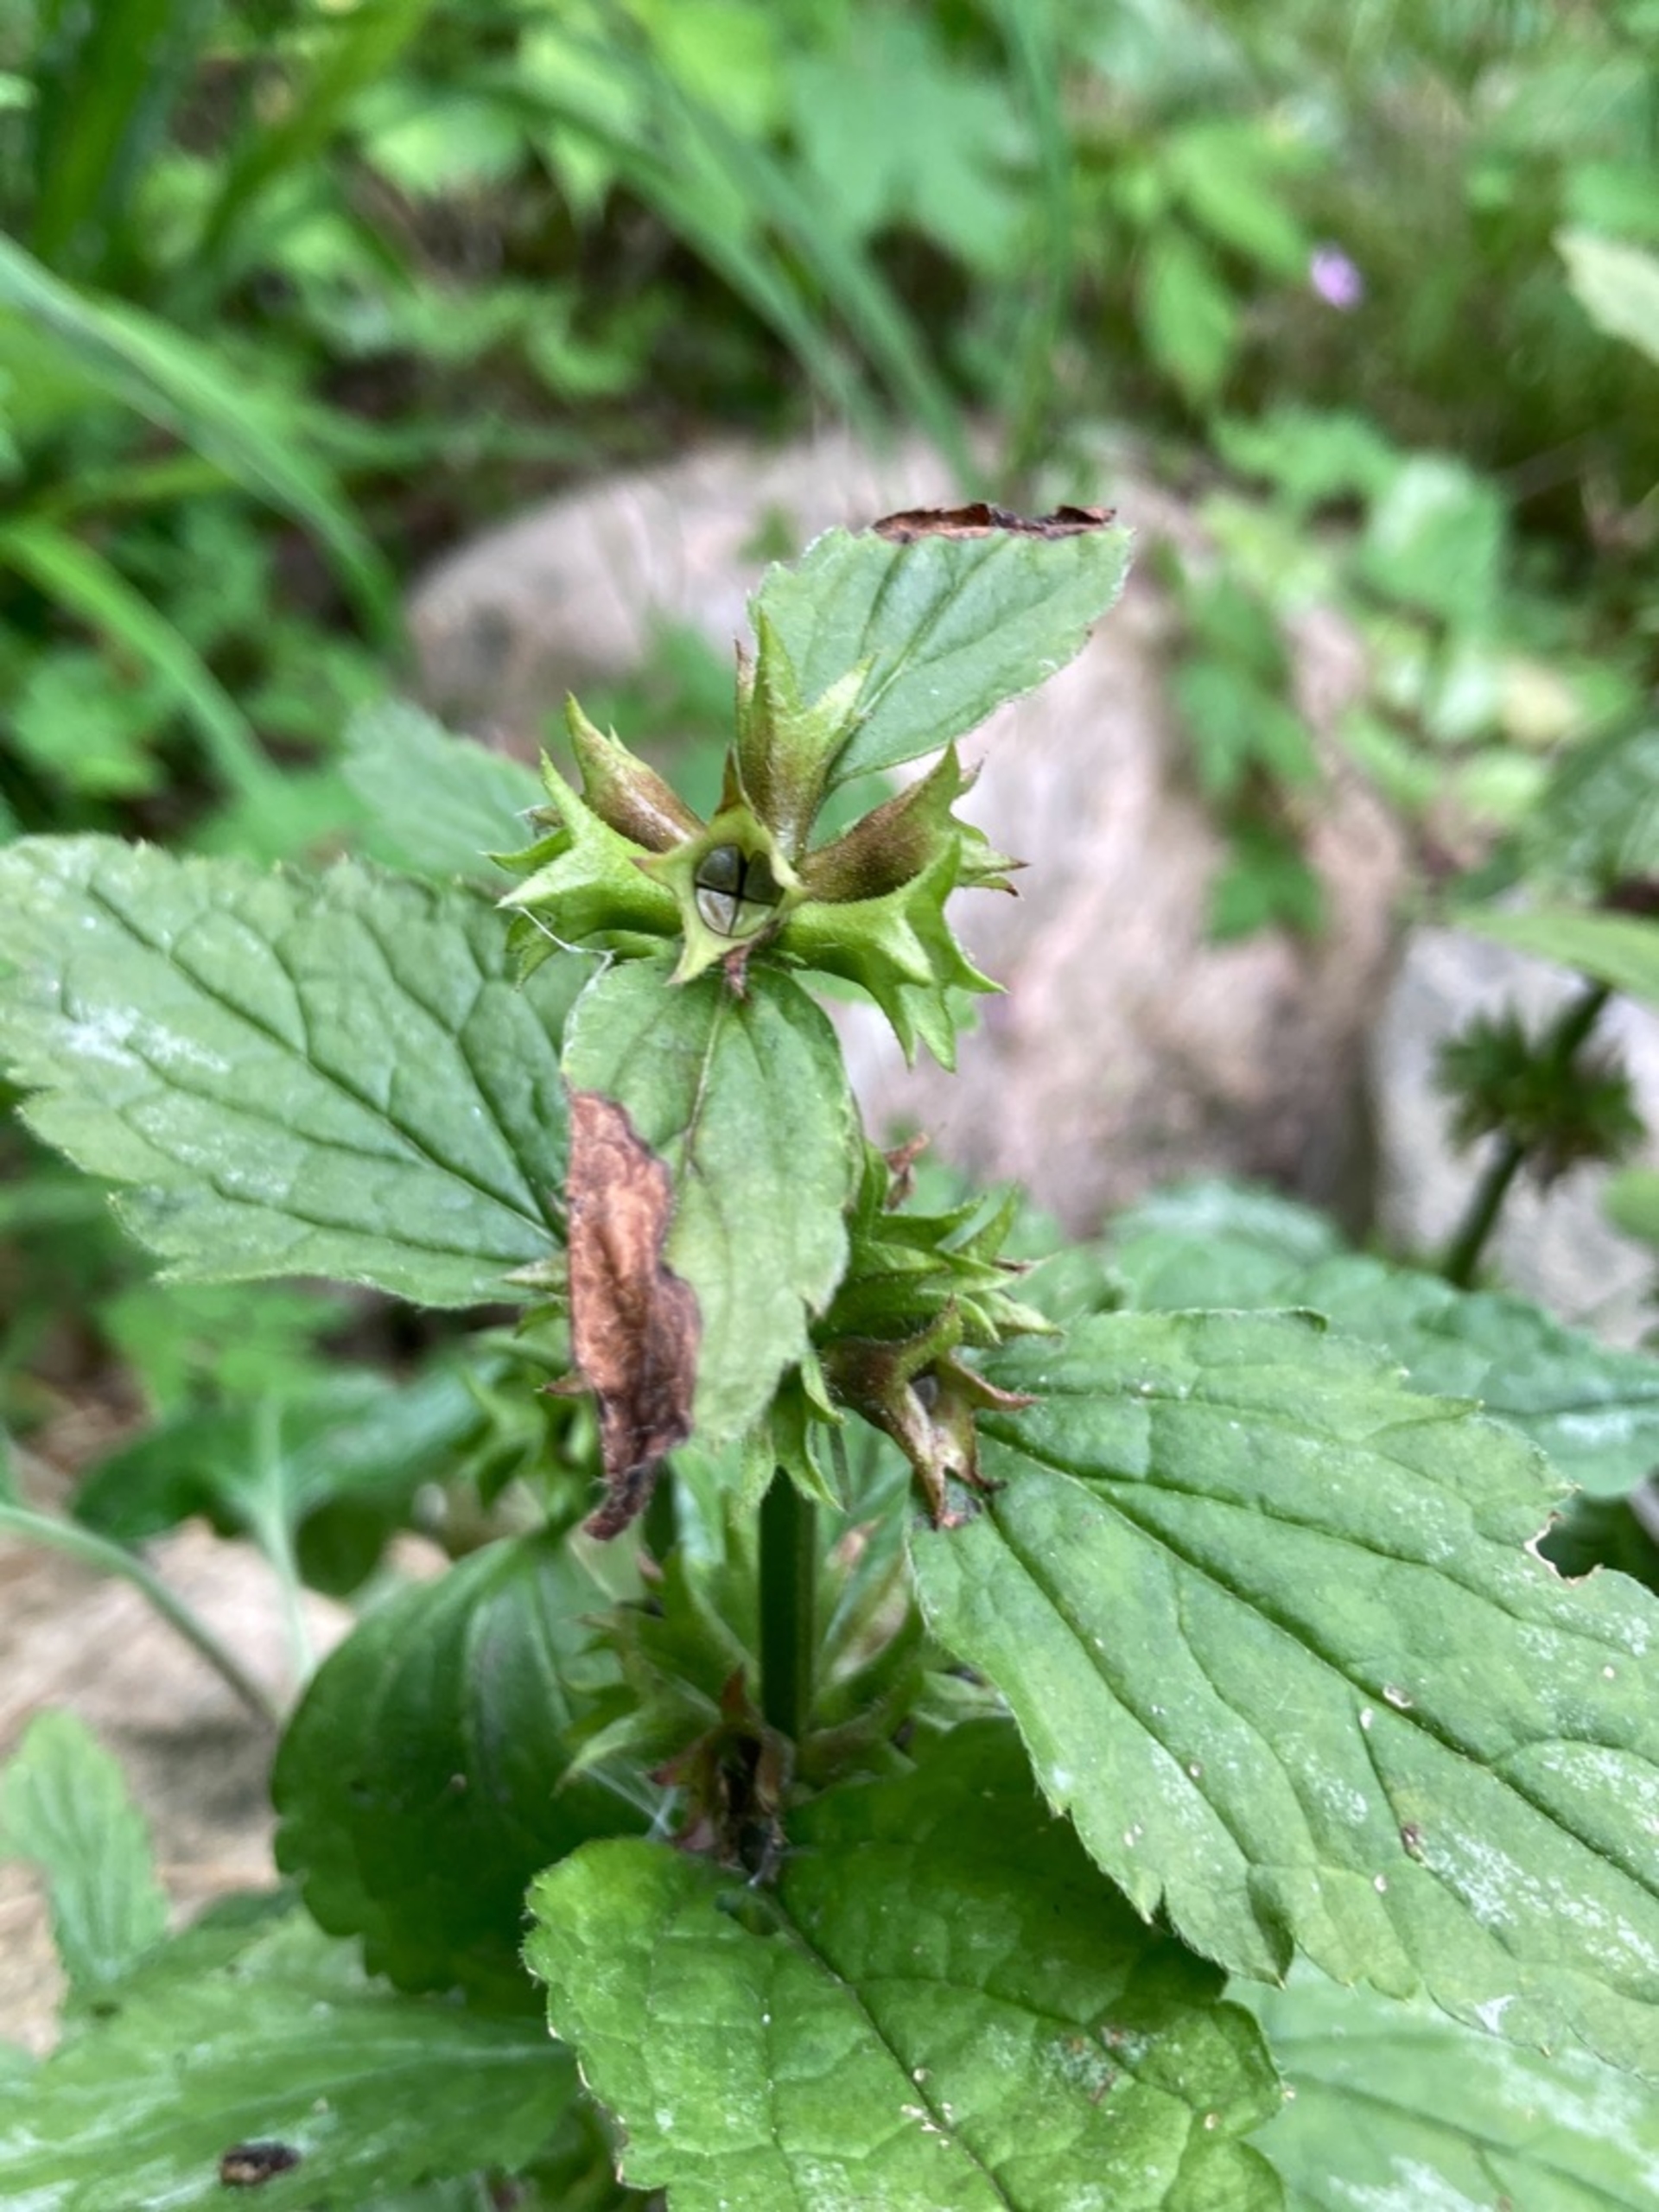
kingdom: Plantae
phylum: Tracheophyta
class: Magnoliopsida
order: Lamiales
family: Lamiaceae
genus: Lamium
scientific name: Lamium galeobdolon
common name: Have-guldnælde
